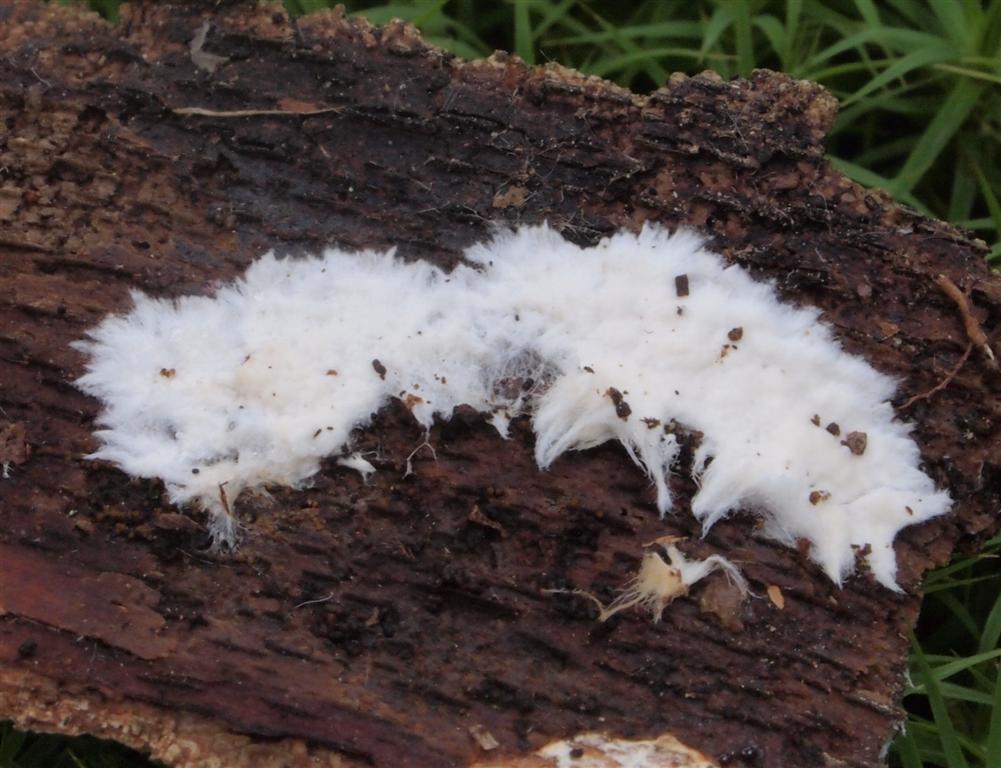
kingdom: Fungi
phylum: Basidiomycota
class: Agaricomycetes
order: Polyporales
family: Phanerochaetaceae
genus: Phanerochaete
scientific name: Phanerochaete velutina
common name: dunet randtråd
